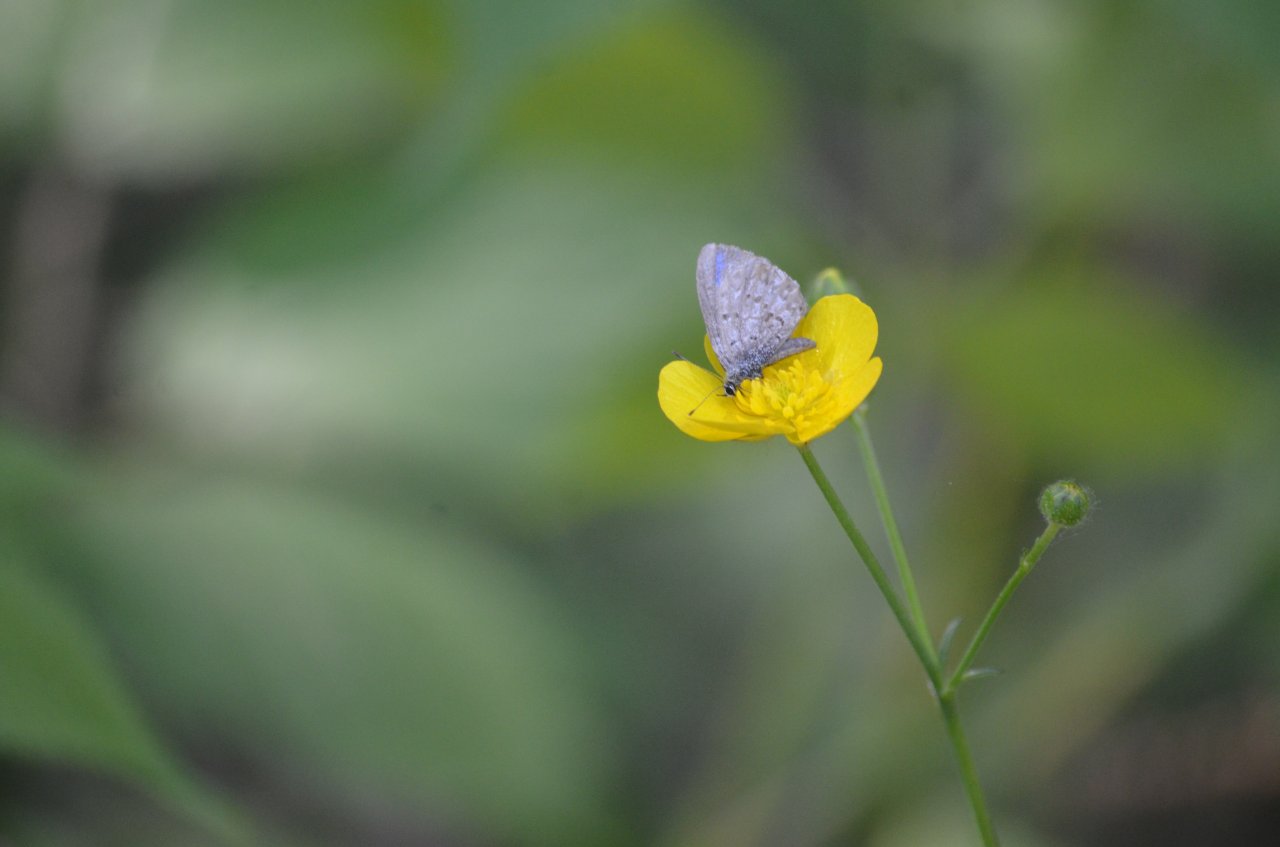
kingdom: Animalia
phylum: Arthropoda
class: Insecta
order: Lepidoptera
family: Lycaenidae
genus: Celastrina
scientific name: Celastrina lucia
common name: Northern Spring Azure
